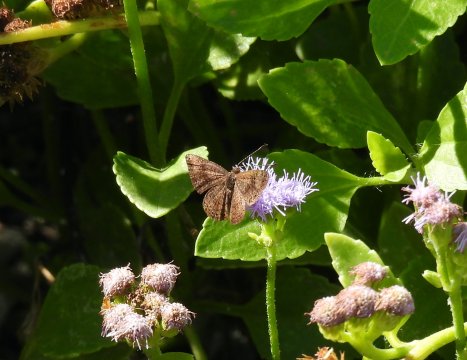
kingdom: Animalia
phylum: Arthropoda
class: Insecta
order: Lepidoptera
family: Riodinidae
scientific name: Riodinidae
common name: Metalmarks
